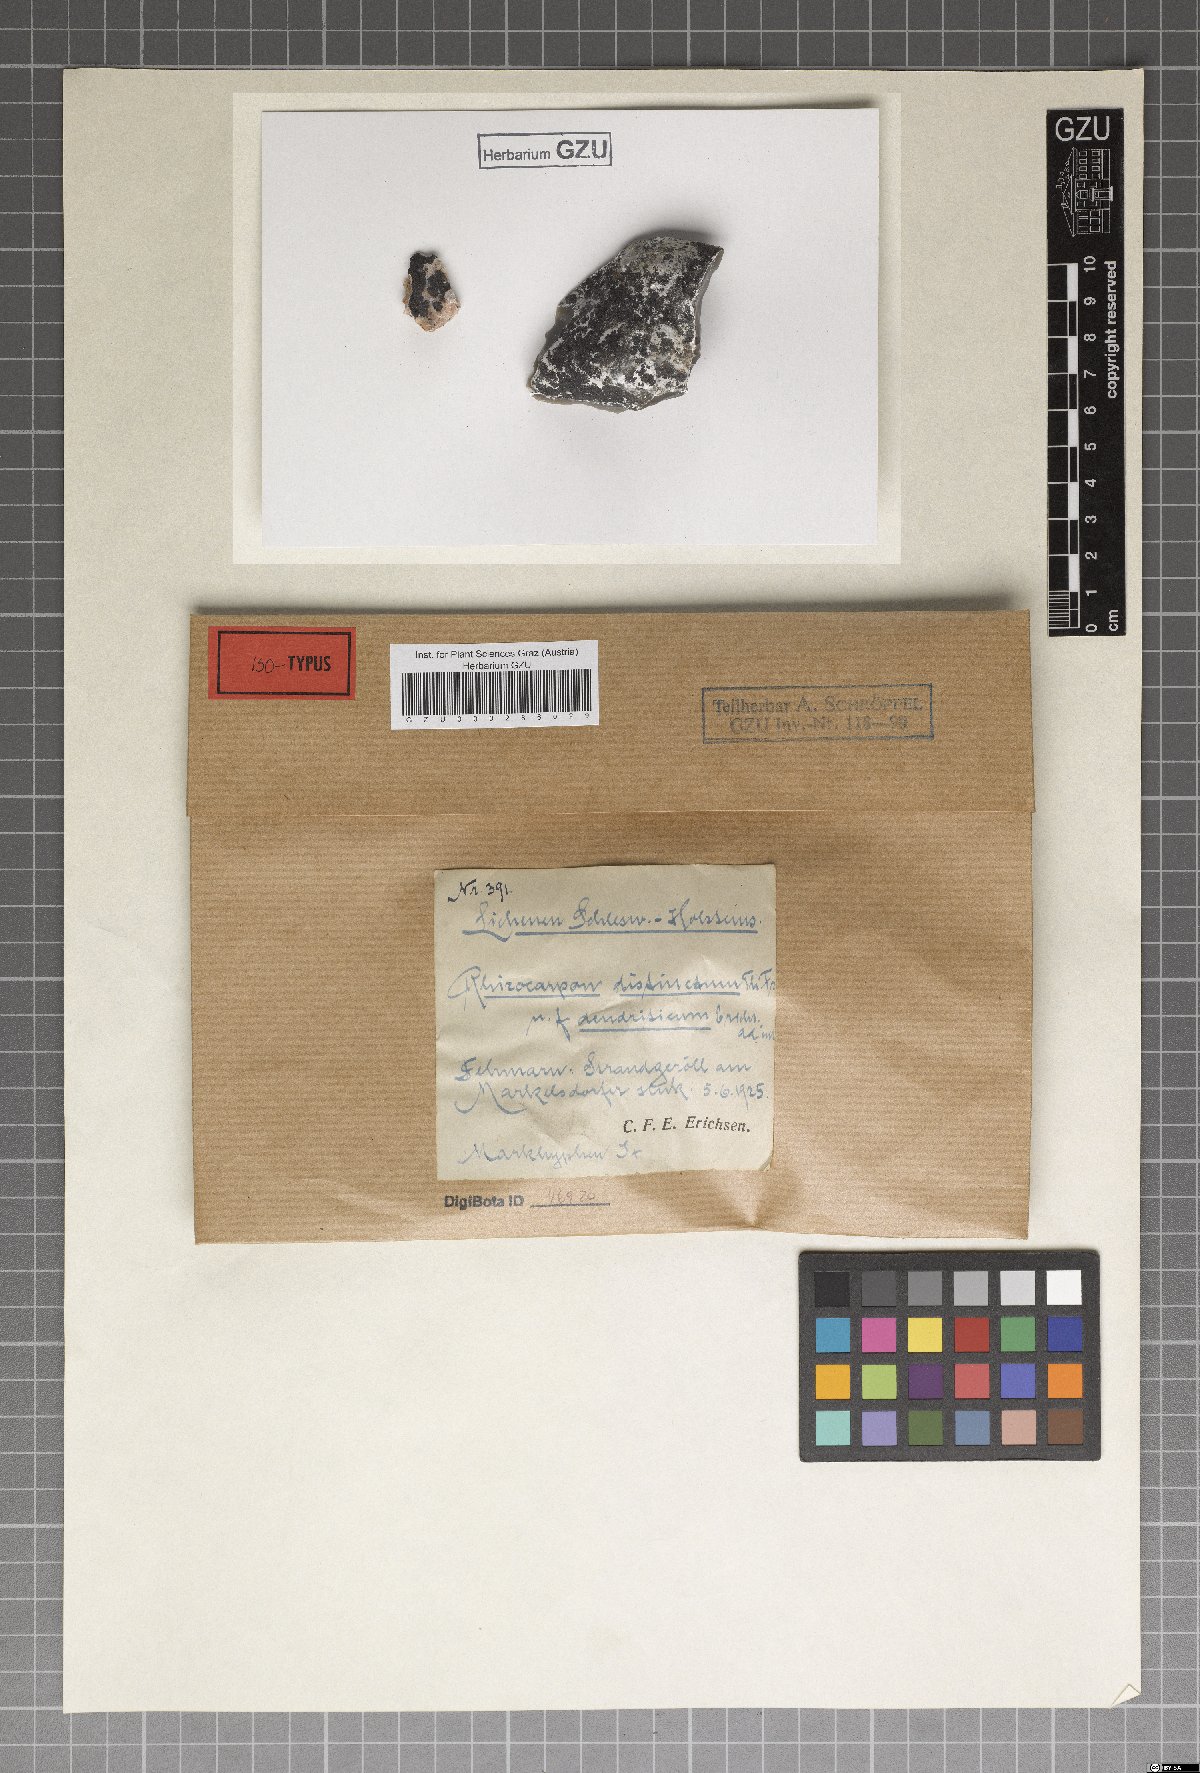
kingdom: Fungi
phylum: Ascomycota
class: Lecanoromycetes
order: Rhizocarpales
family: Rhizocarpaceae
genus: Rhizocarpon
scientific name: Rhizocarpon distinctum
